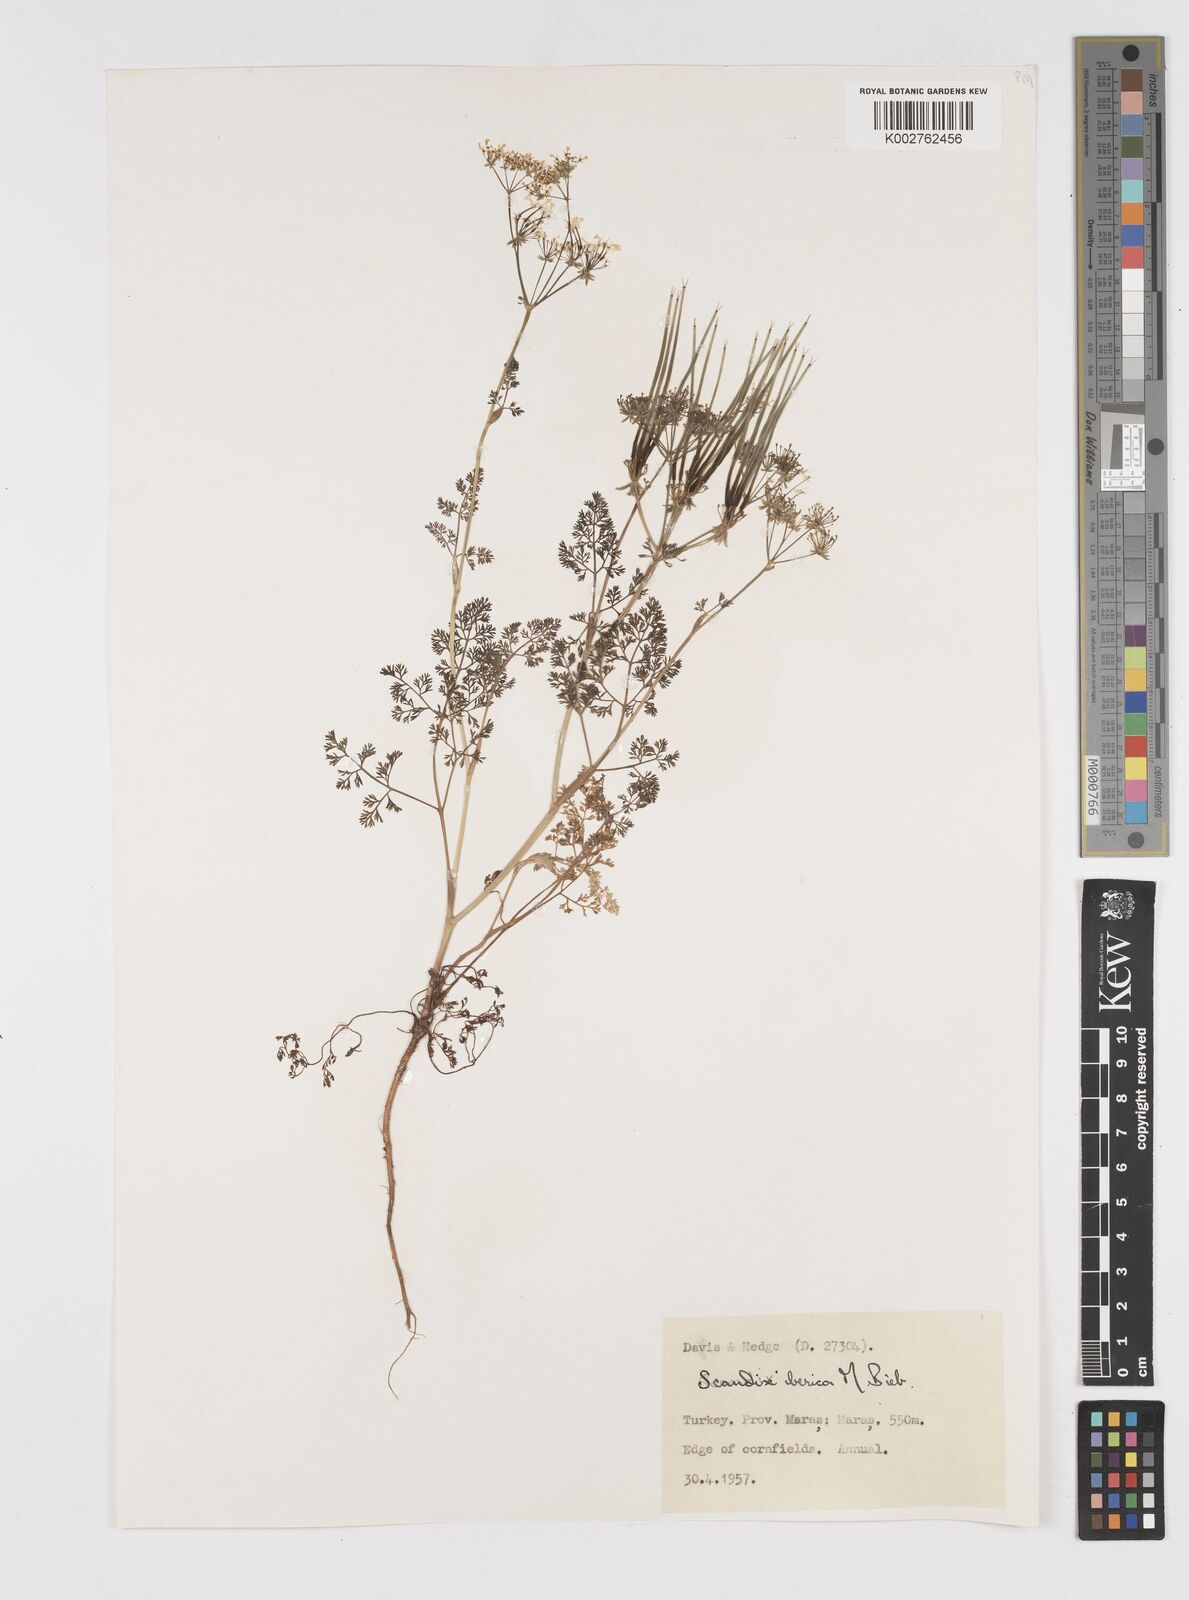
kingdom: Plantae
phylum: Tracheophyta
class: Magnoliopsida
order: Apiales
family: Apiaceae
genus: Scandix
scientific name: Scandix iberica
